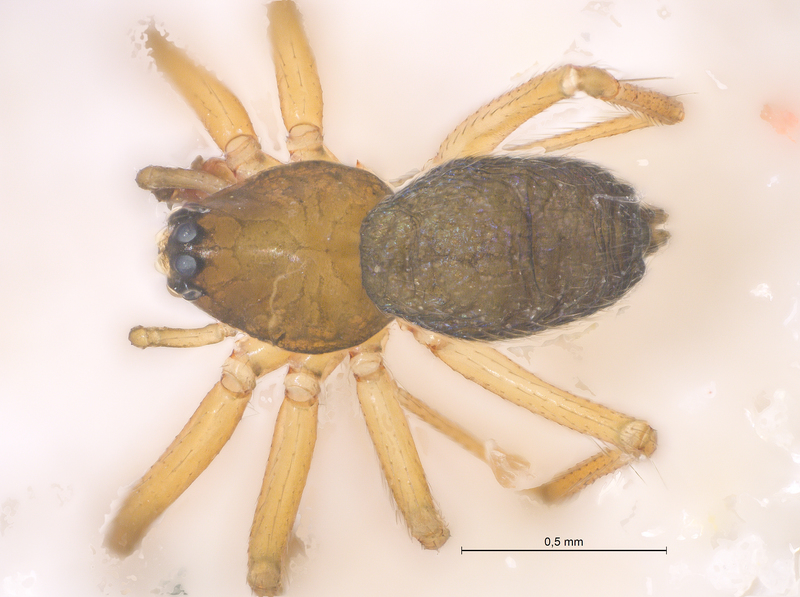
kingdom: Animalia
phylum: Arthropoda
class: Arachnida
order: Araneae
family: Linyphiidae
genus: Agyneta
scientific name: Agyneta mollis
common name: Thin weblet
